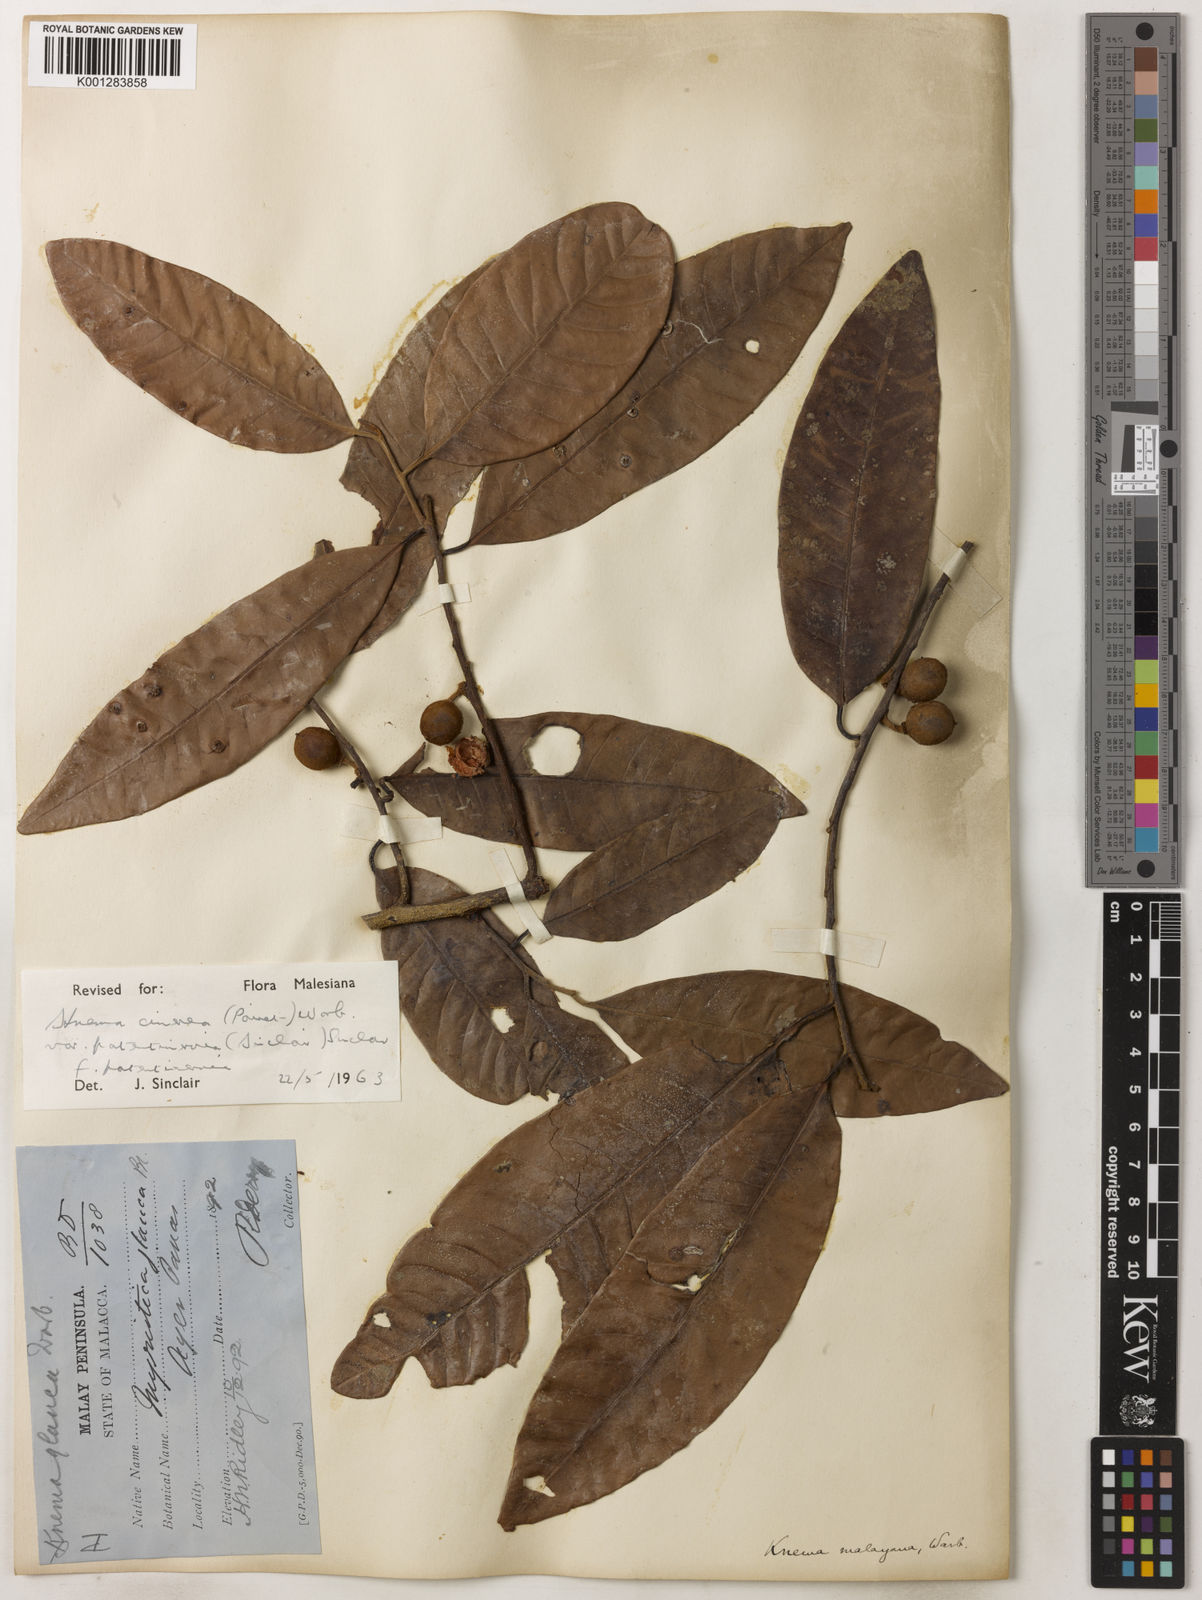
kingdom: Plantae
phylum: Tracheophyta
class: Magnoliopsida
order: Magnoliales
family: Myristicaceae
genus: Knema
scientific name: Knema
